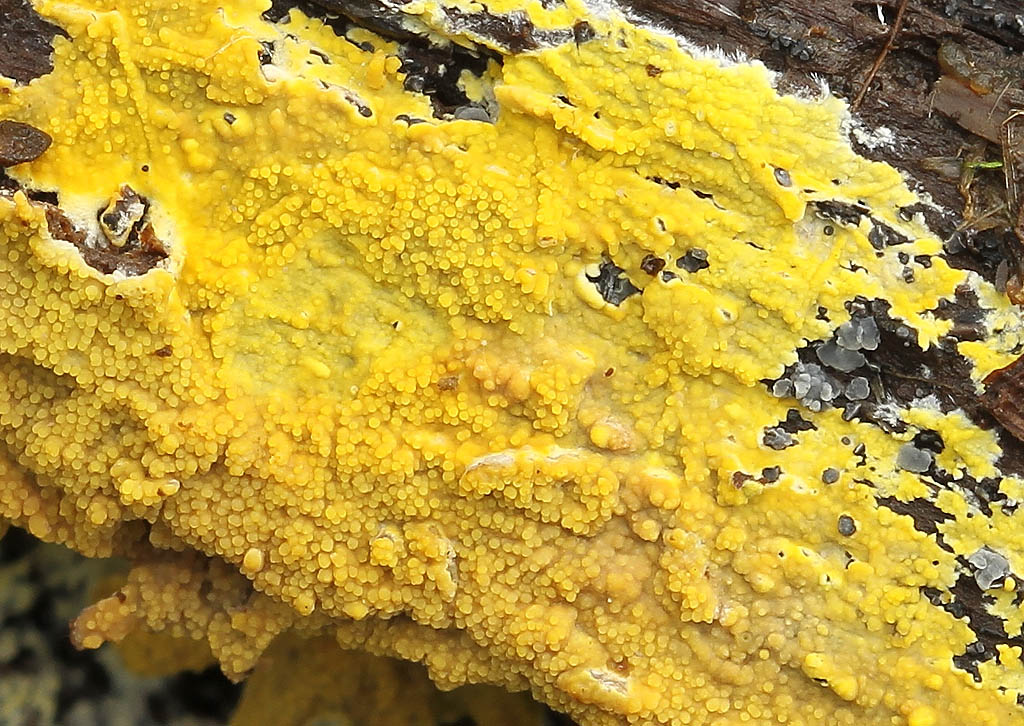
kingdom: Fungi
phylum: Basidiomycota
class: Agaricomycetes
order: Polyporales
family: Meruliaceae
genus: Phlebiodontia
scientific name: Phlebiodontia subochracea
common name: svovl-åresvamp
